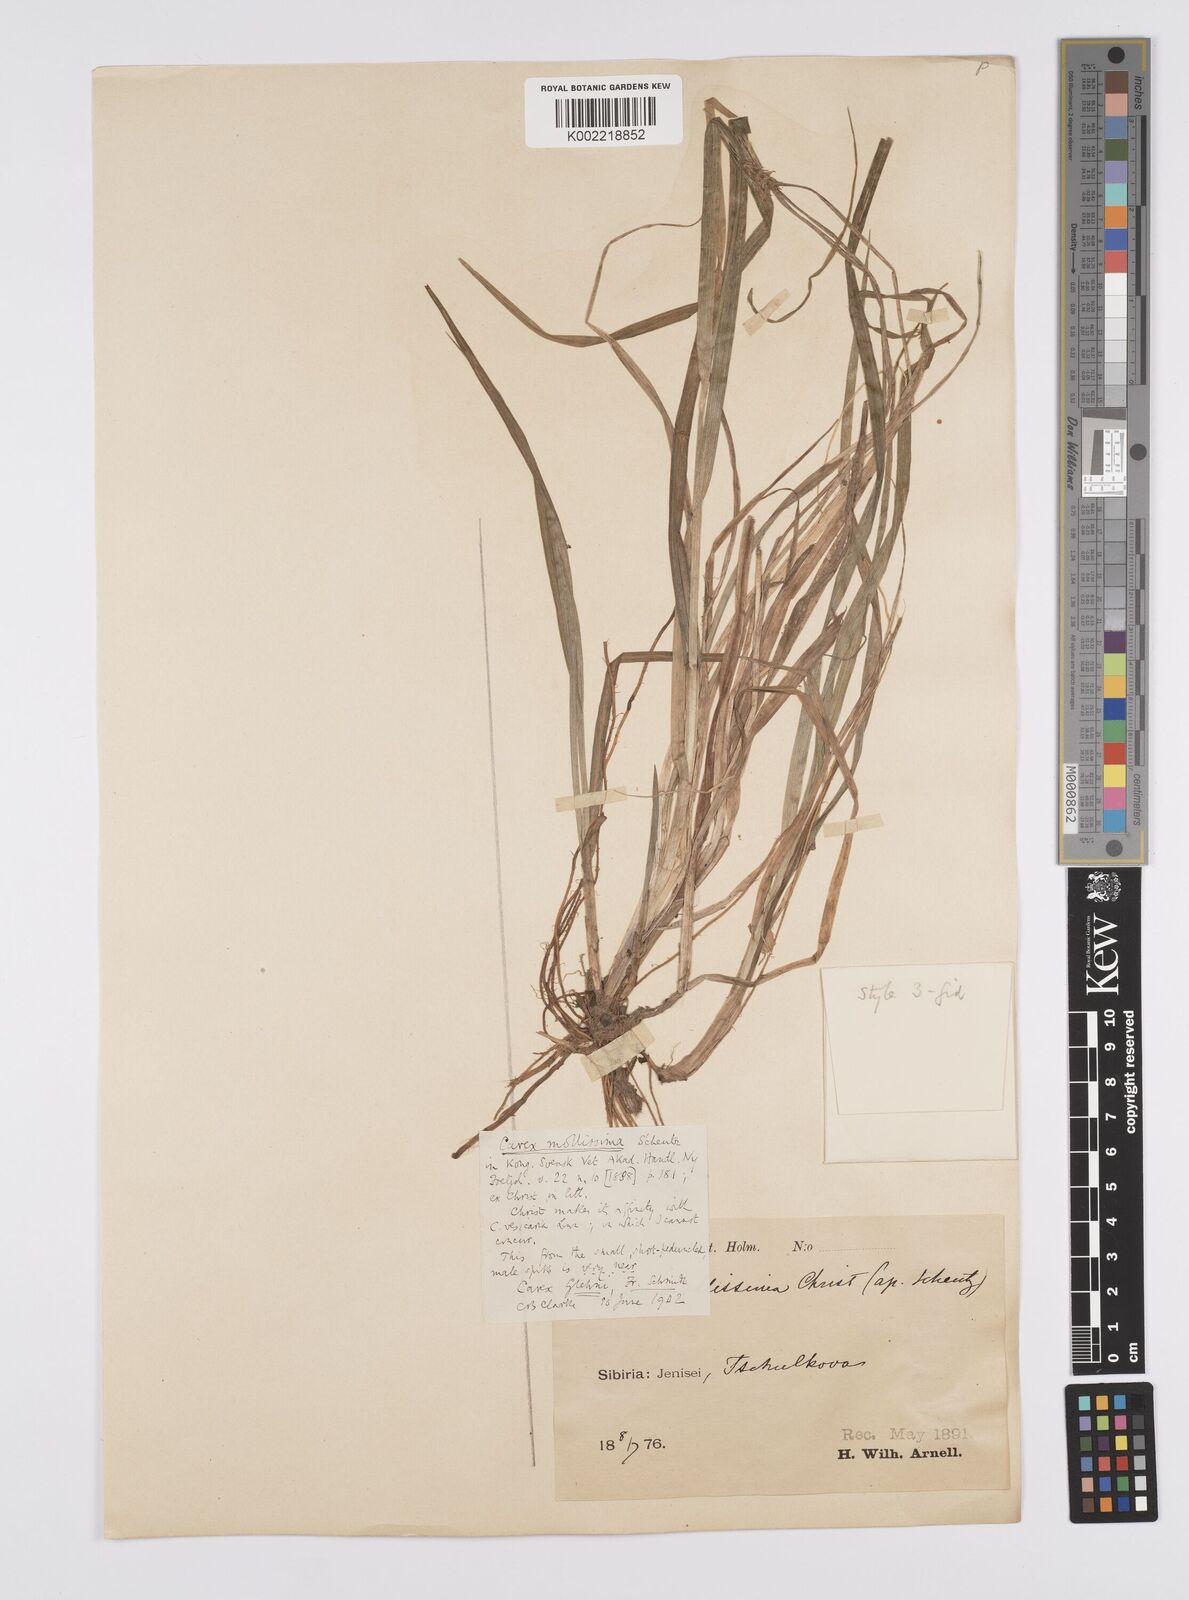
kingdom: Plantae
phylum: Tracheophyta
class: Liliopsida
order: Poales
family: Cyperaceae
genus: Carex
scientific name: Carex mollissima
